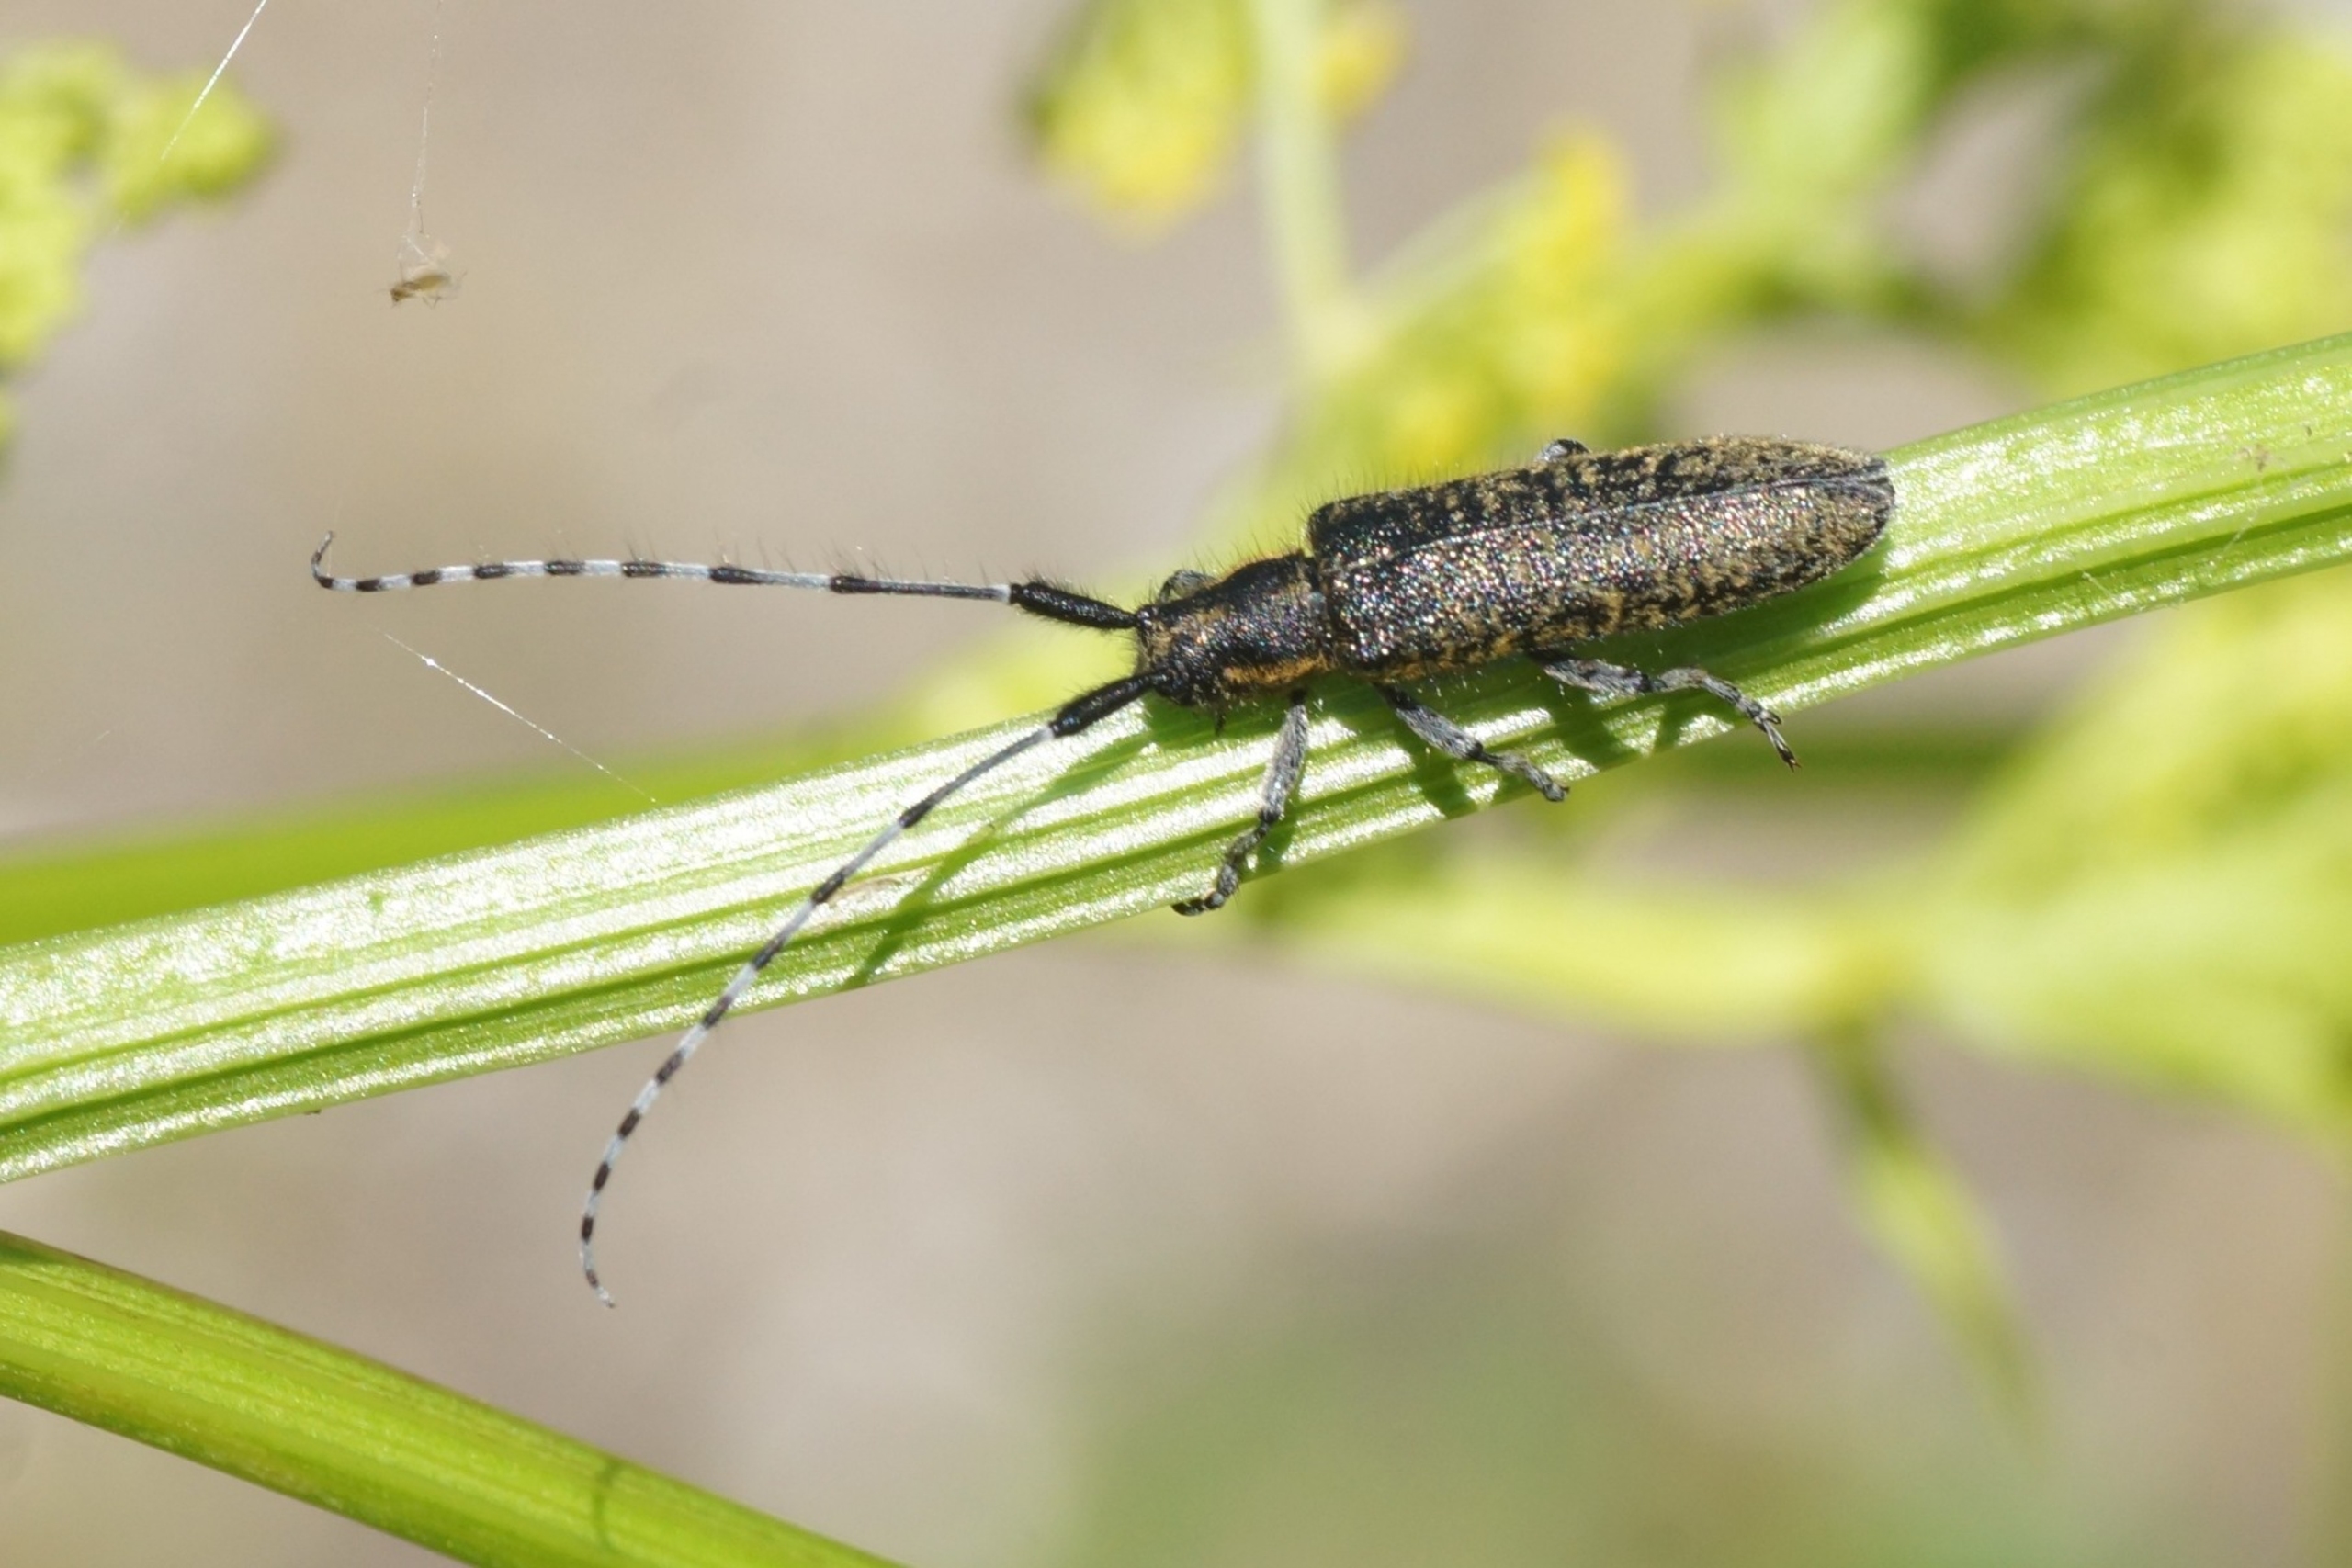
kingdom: Animalia
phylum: Arthropoda
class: Insecta
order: Coleoptera
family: Cerambycidae
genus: Agapanthia
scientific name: Agapanthia villosoviridescens
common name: Tidselbuk
